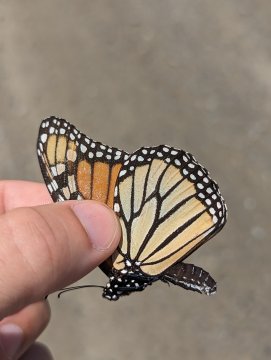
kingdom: Animalia
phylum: Arthropoda
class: Insecta
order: Lepidoptera
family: Nymphalidae
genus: Danaus
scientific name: Danaus plexippus
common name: Monarch
